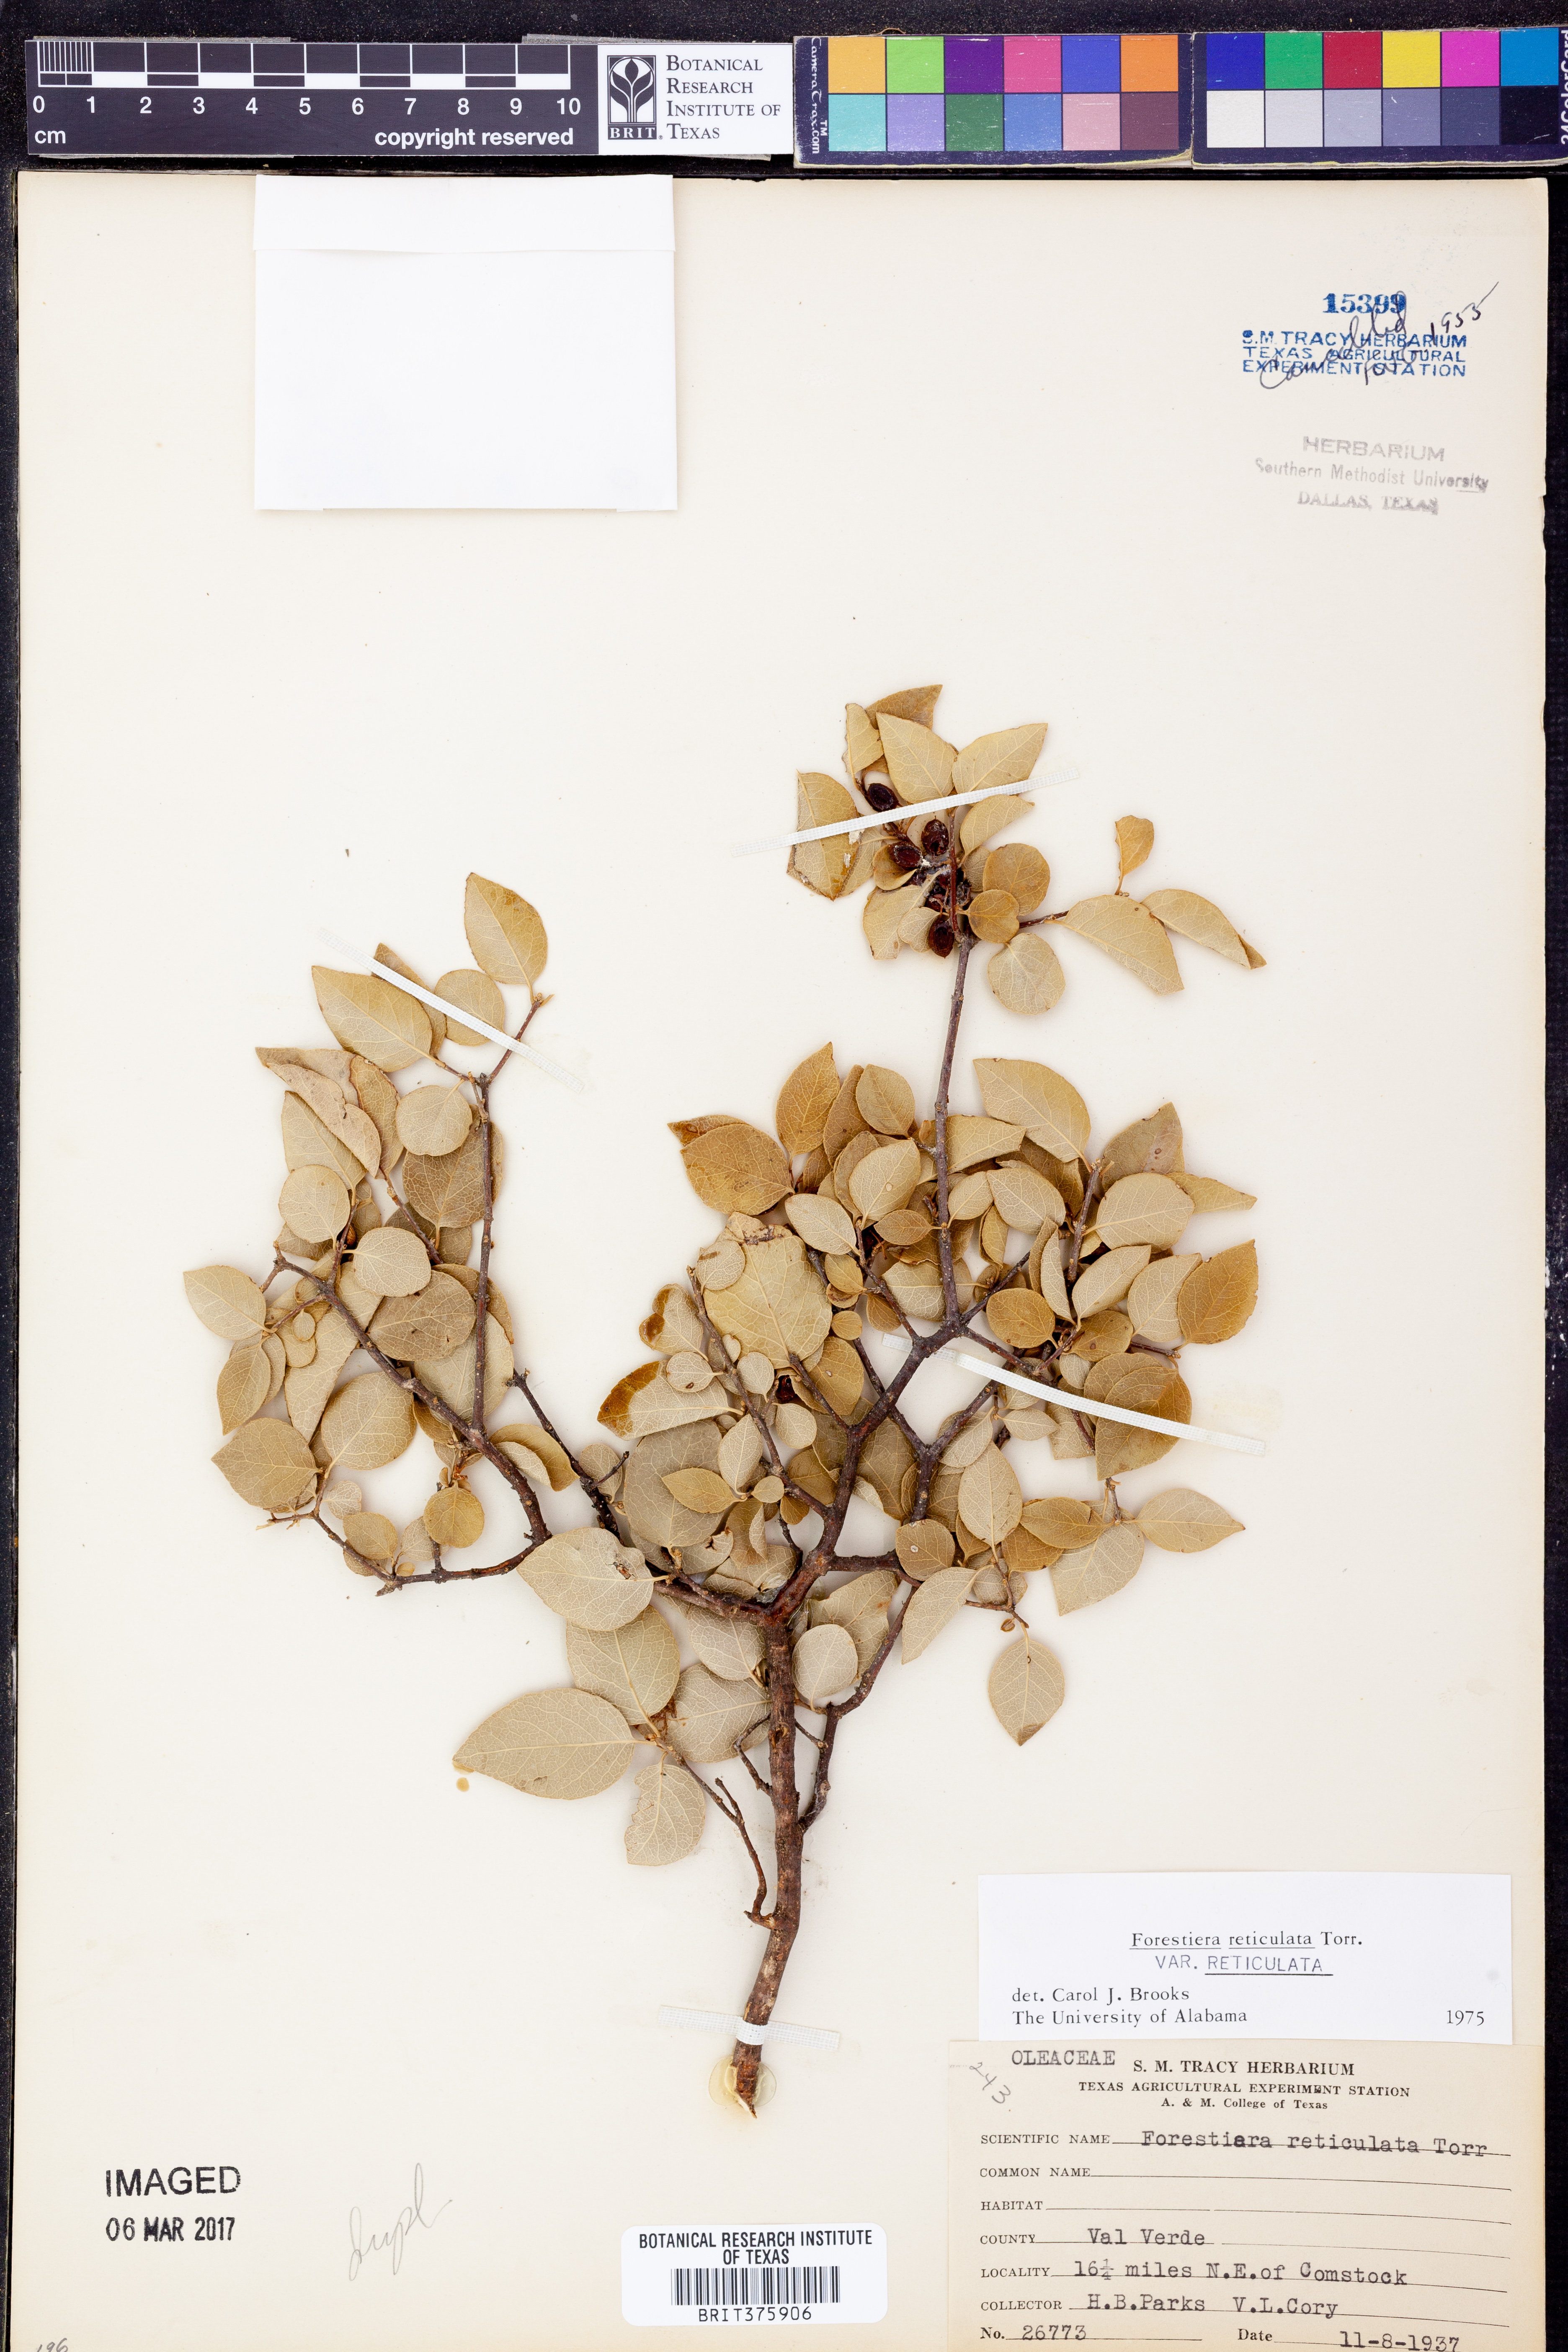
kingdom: Plantae
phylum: Tracheophyta
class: Magnoliopsida
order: Lamiales
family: Oleaceae
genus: Forestiera
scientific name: Forestiera reticulata
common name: Netleaf swamp-privet
